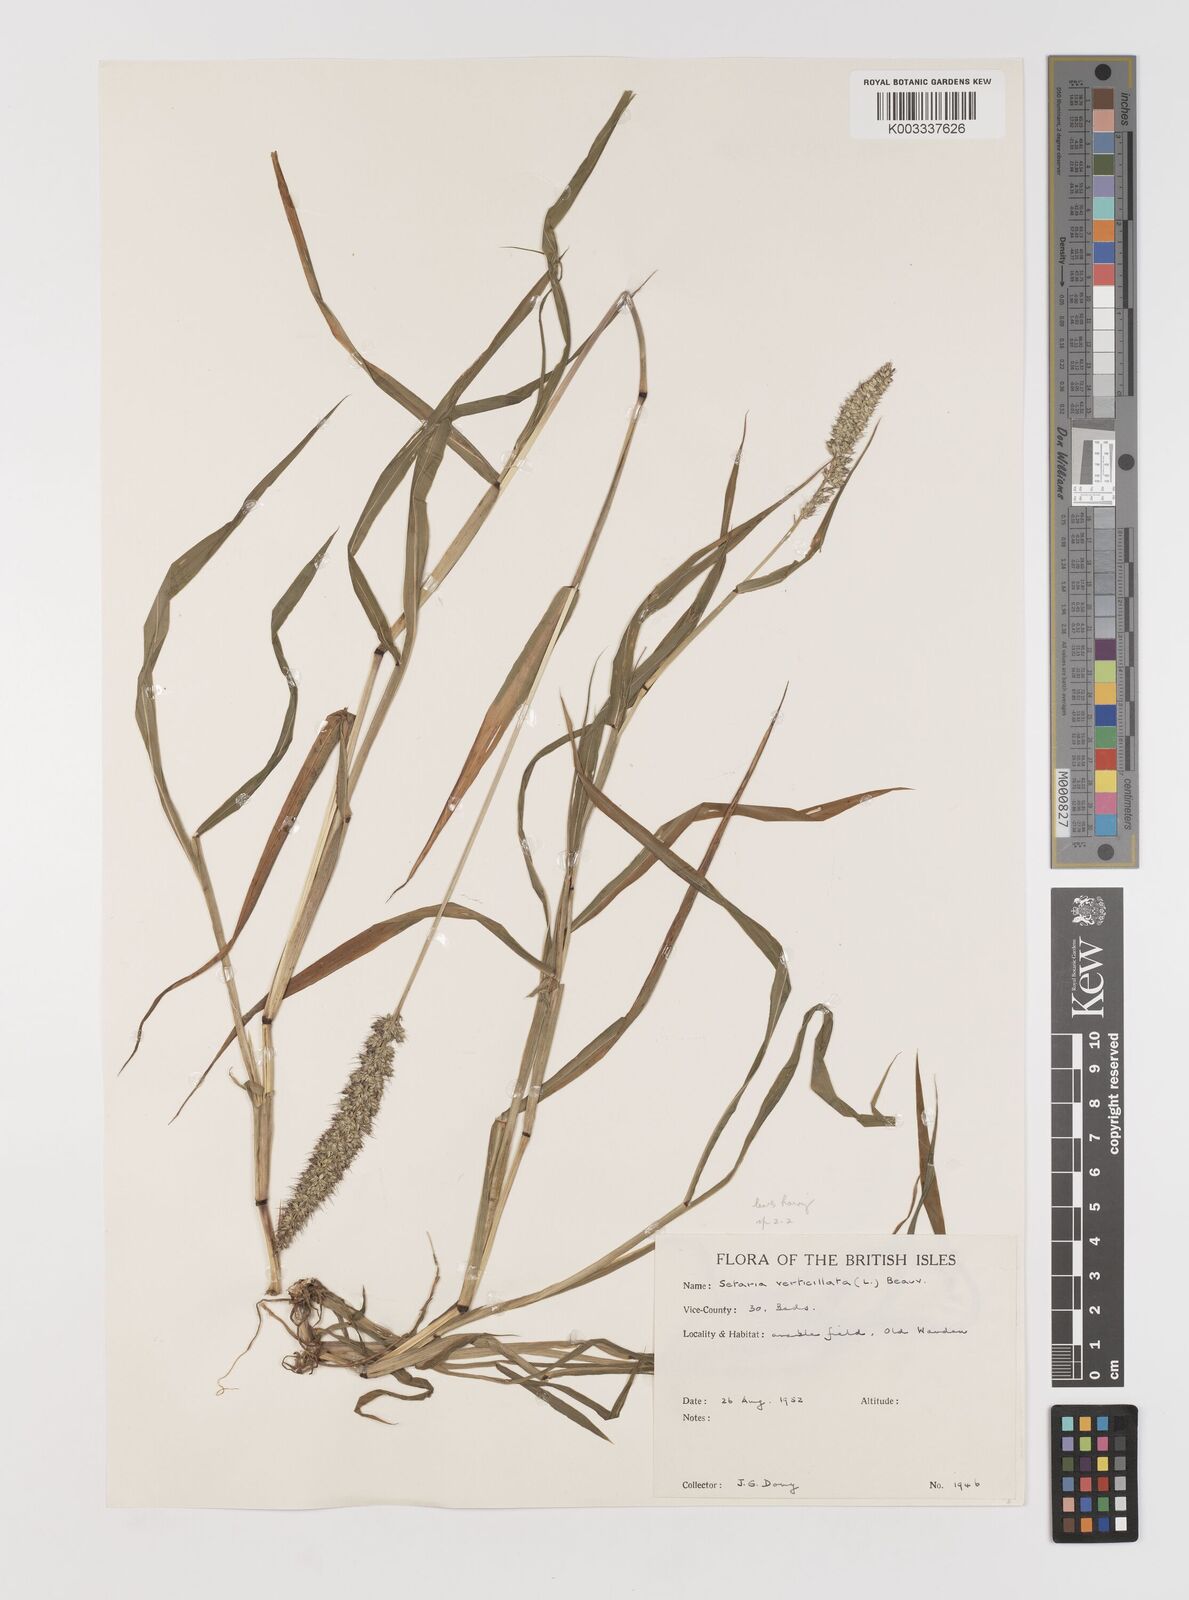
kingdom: Plantae
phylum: Tracheophyta
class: Liliopsida
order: Poales
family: Poaceae
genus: Setaria
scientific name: Setaria verticillata
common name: Hooked bristlegrass
